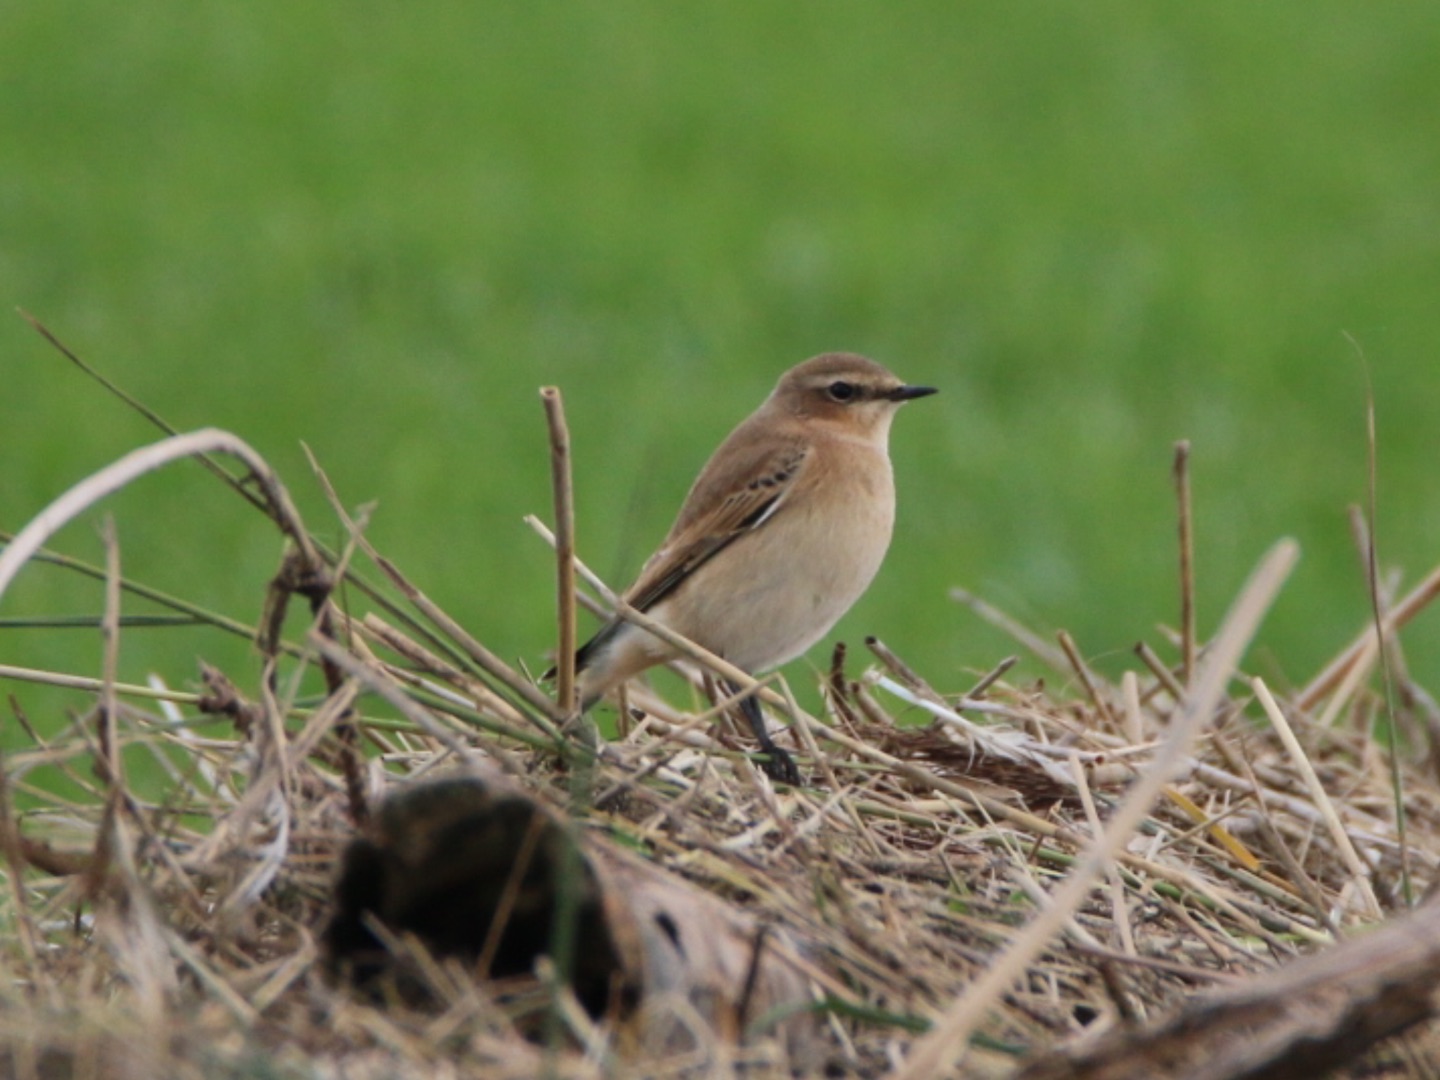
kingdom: Animalia
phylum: Chordata
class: Aves
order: Passeriformes
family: Muscicapidae
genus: Oenanthe
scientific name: Oenanthe oenanthe
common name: Stenpikker
